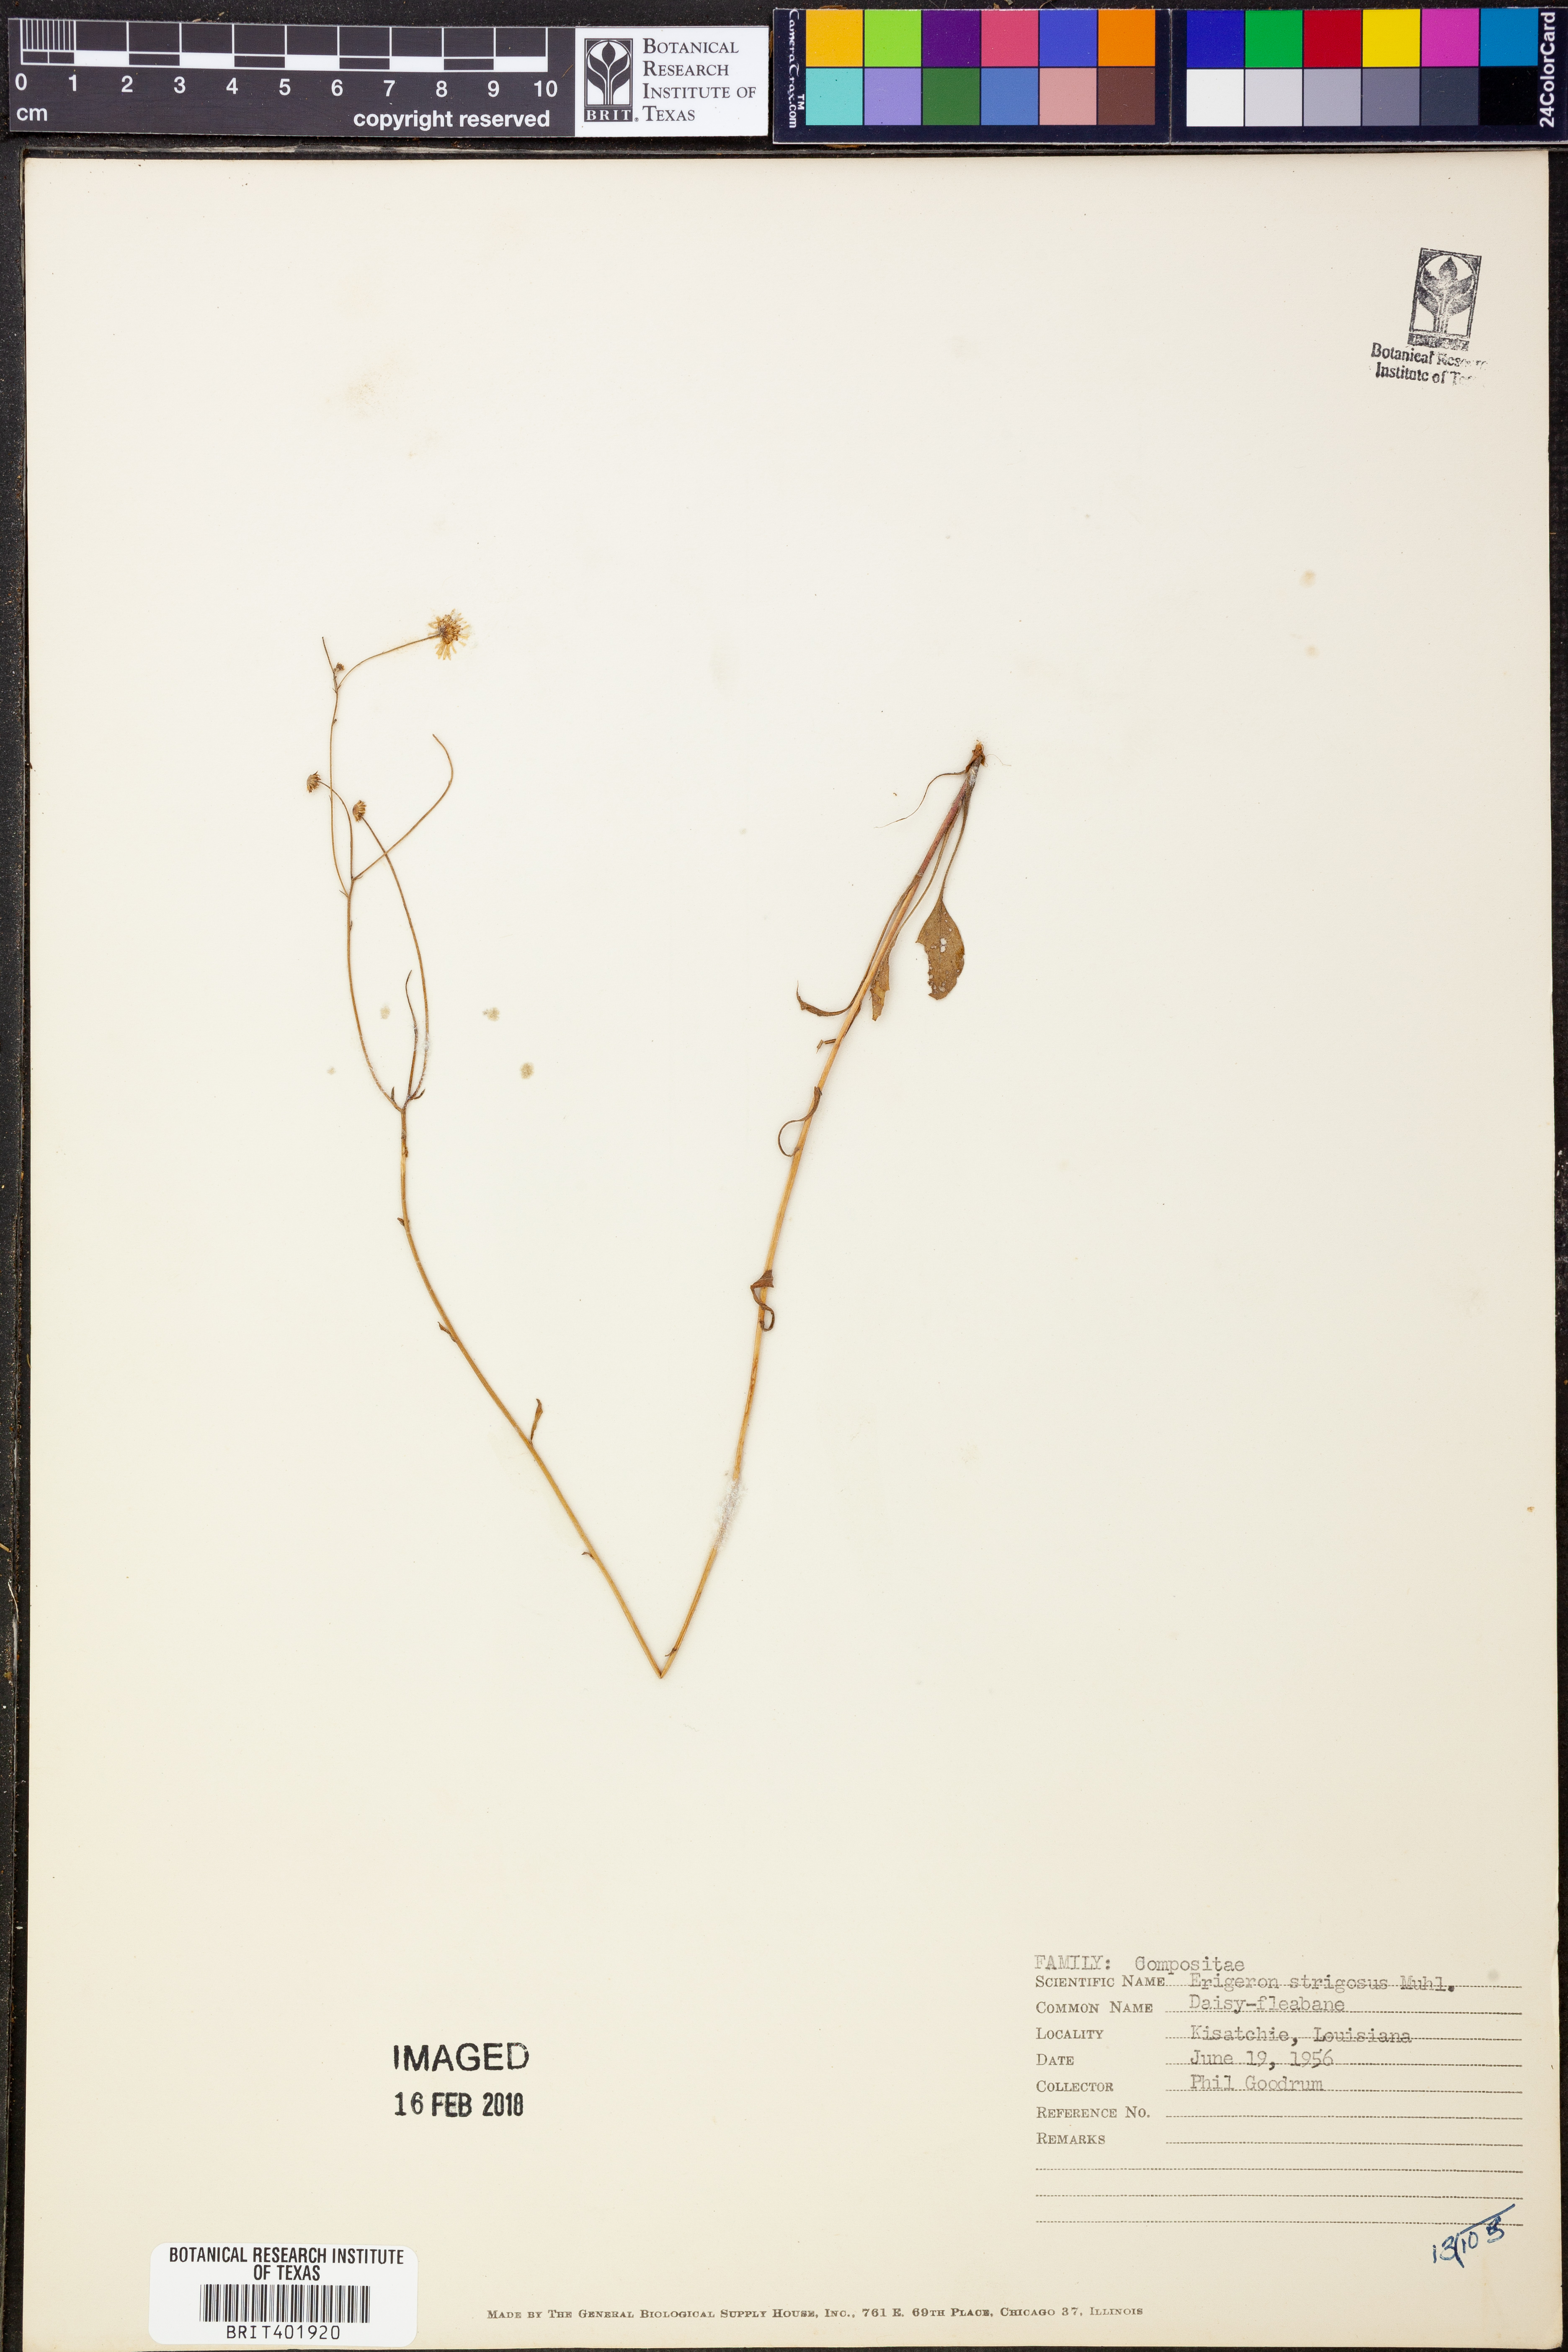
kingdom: Plantae
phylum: Tracheophyta
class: Magnoliopsida
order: Asterales
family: Asteraceae
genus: Erigeron
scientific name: Erigeron strigosus
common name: Common eastern fleabane
